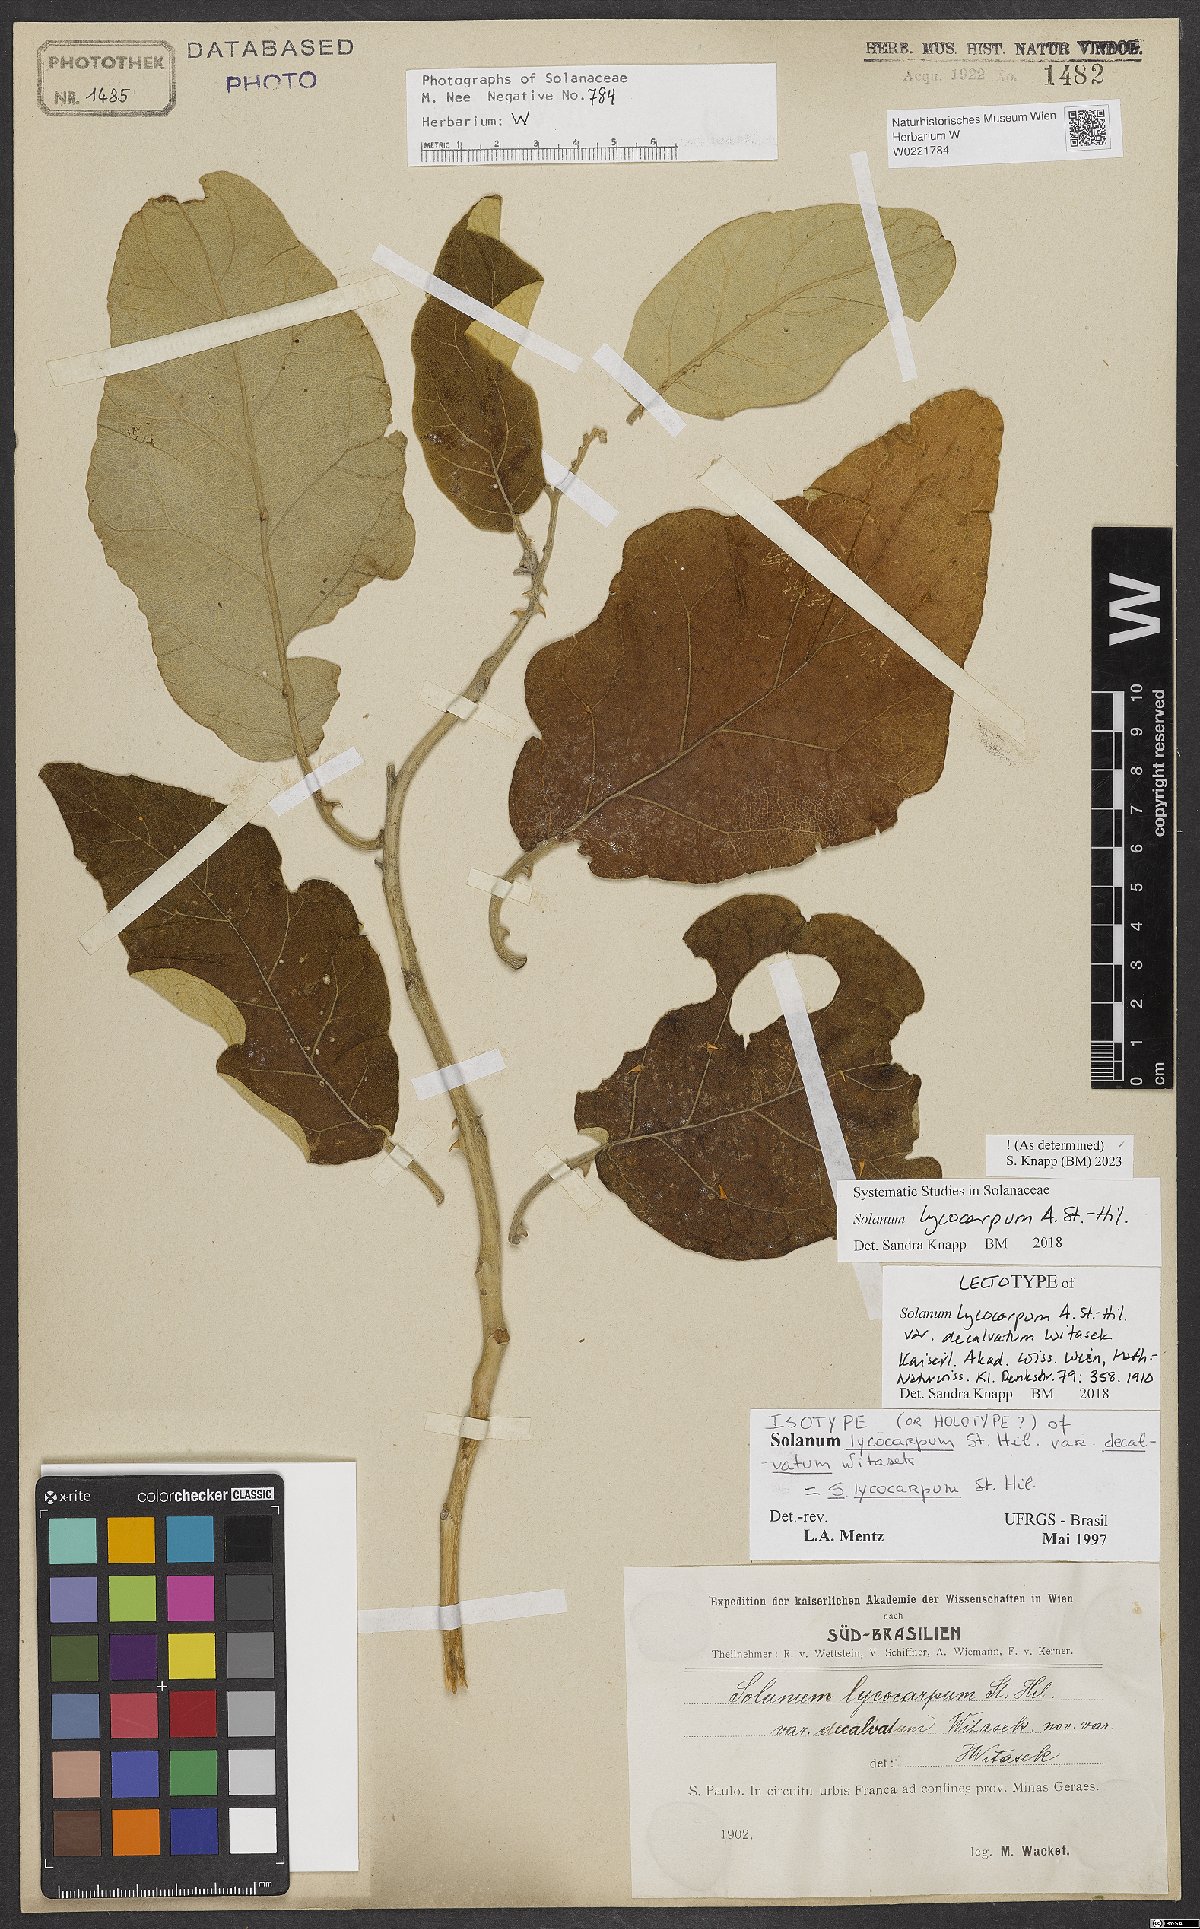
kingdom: Plantae
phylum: Tracheophyta
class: Magnoliopsida
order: Solanales
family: Solanaceae
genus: Solanum
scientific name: Solanum lycocarpum
